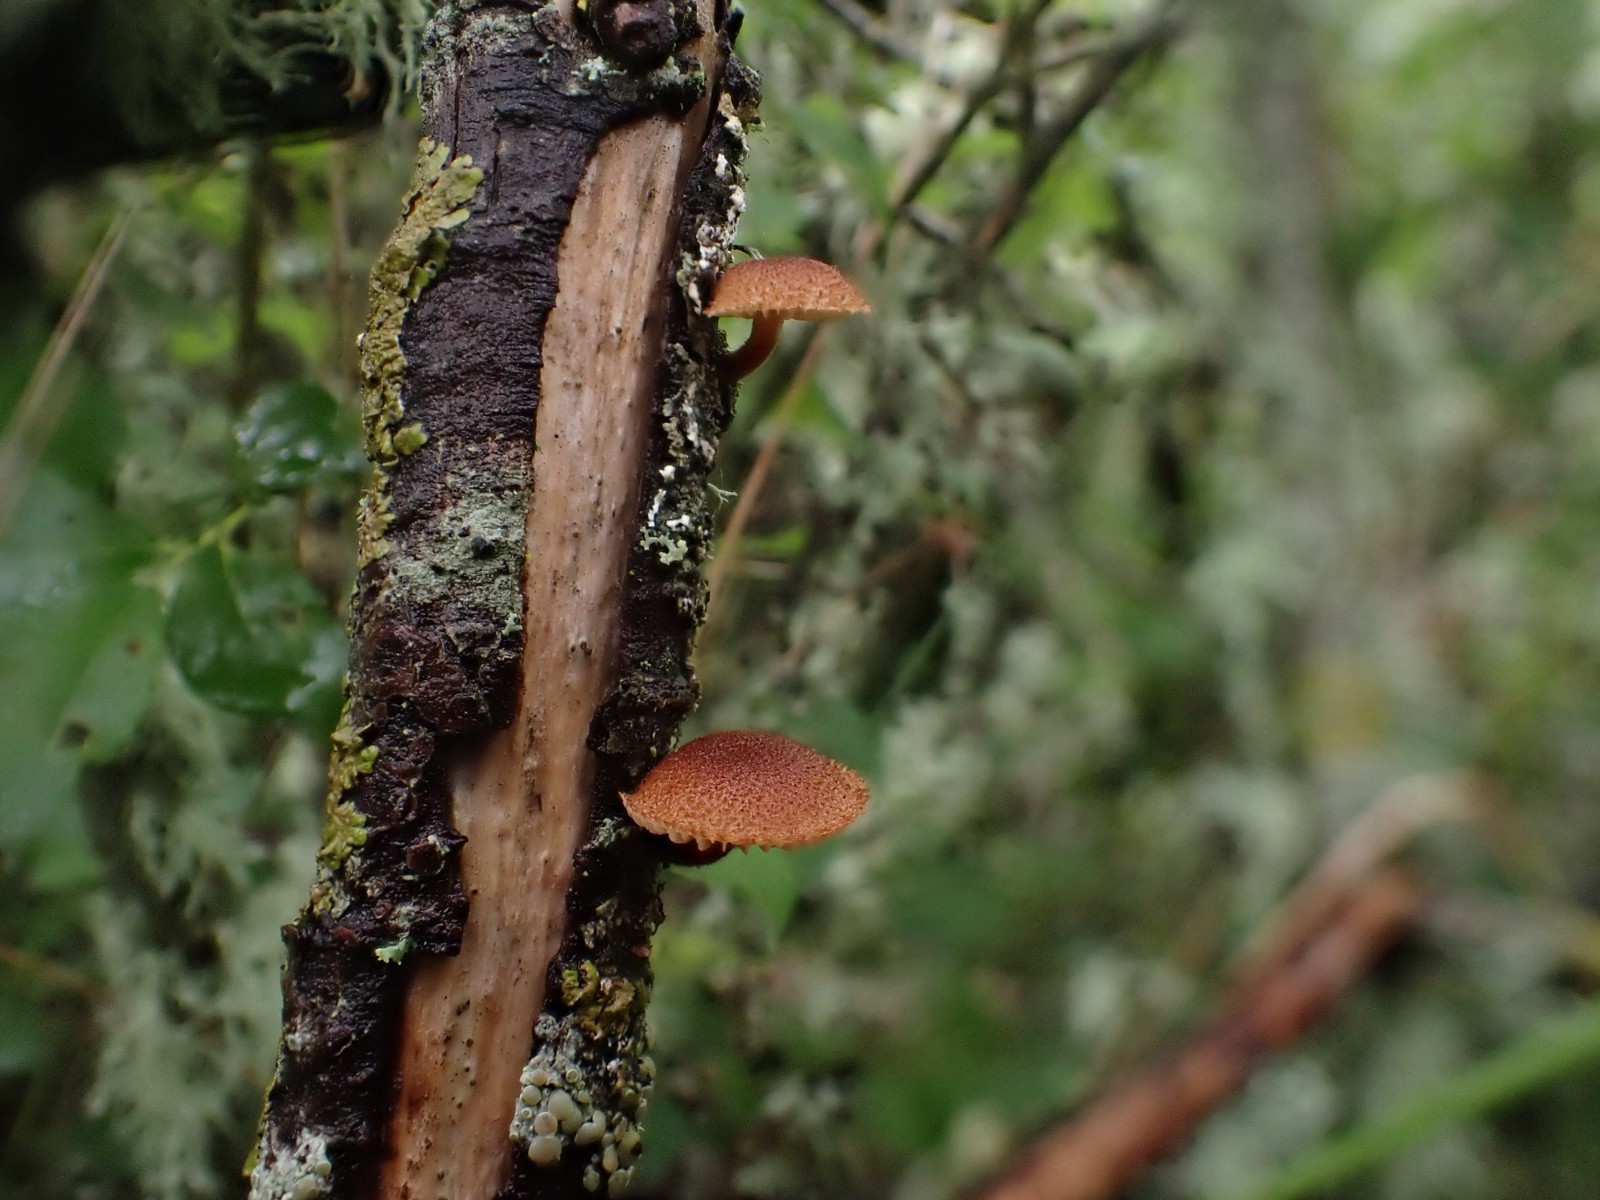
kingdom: Fungi
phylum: Basidiomycota
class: Agaricomycetes
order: Agaricales
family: Tubariaceae
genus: Phaeomarasmius
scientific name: Phaeomarasmius erinaceus
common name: spidsskælhat
